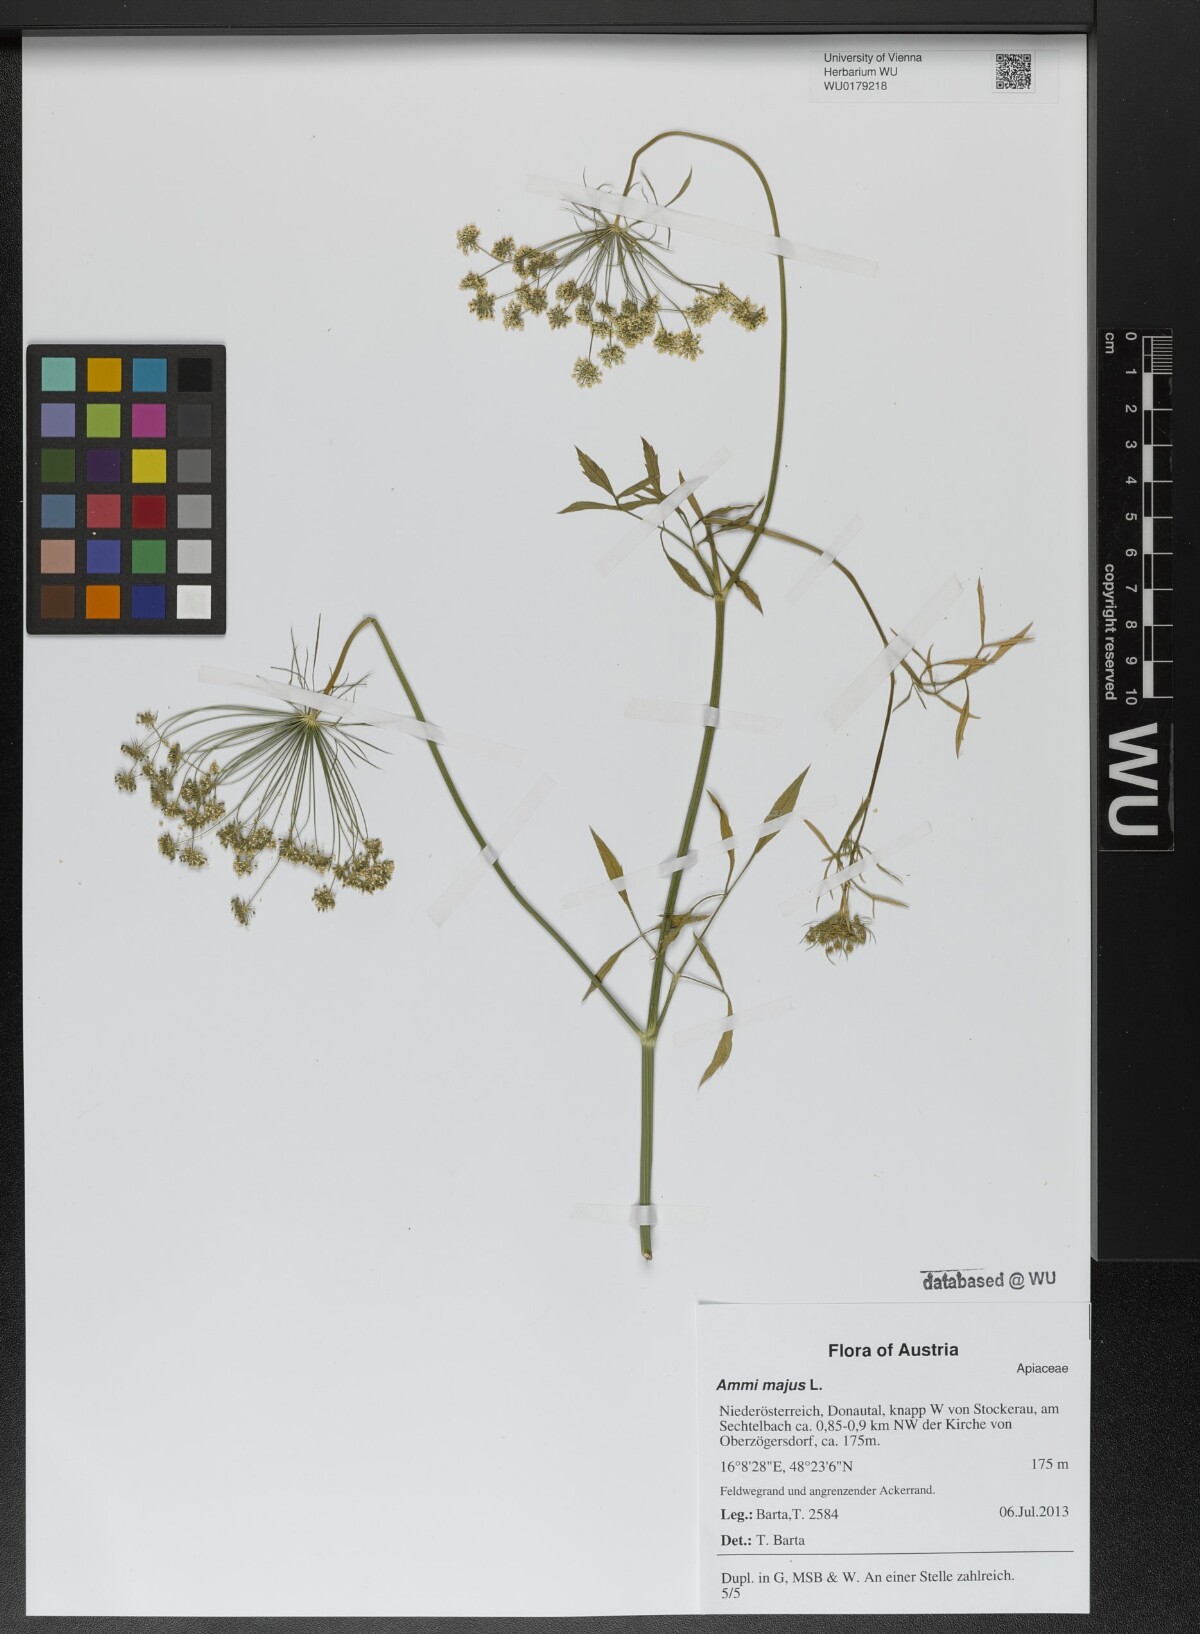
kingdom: Plantae
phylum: Tracheophyta
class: Magnoliopsida
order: Apiales
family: Apiaceae
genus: Ammi
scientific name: Ammi majus
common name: Bullwort
